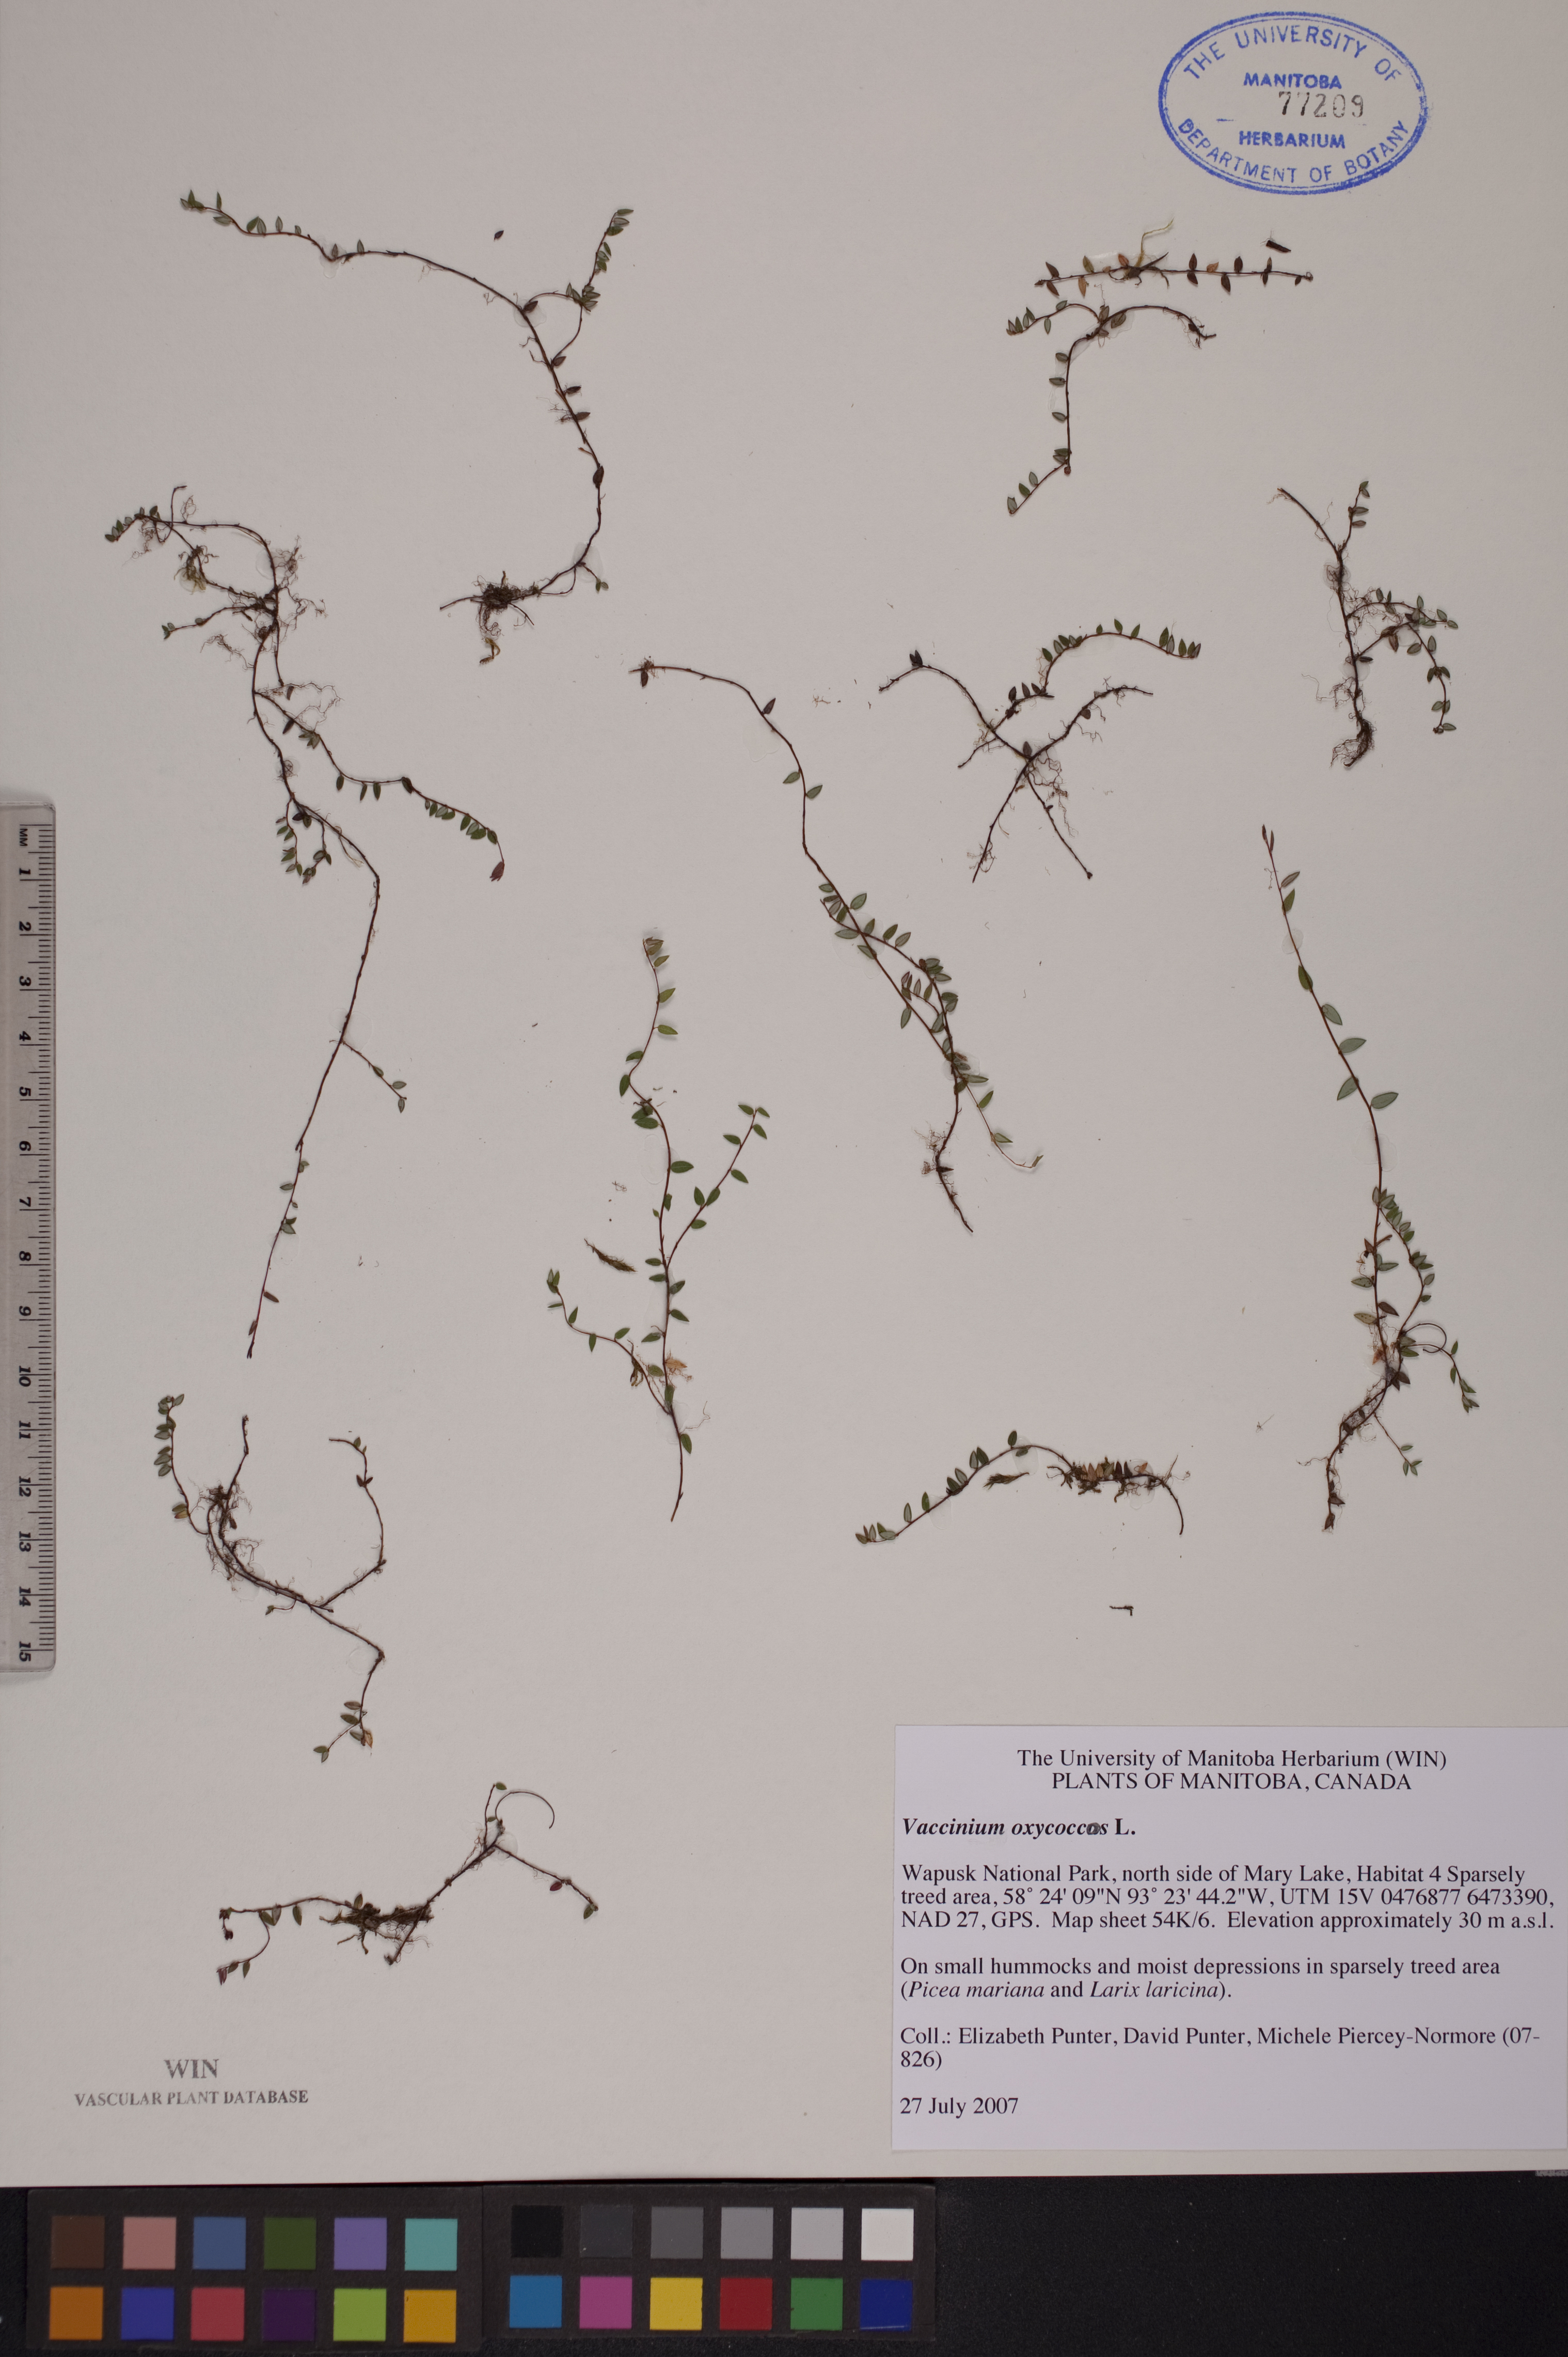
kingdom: Plantae
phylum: Tracheophyta
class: Magnoliopsida
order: Ericales
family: Ericaceae
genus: Vaccinium
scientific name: Vaccinium oxycoccos
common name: Cranberry
